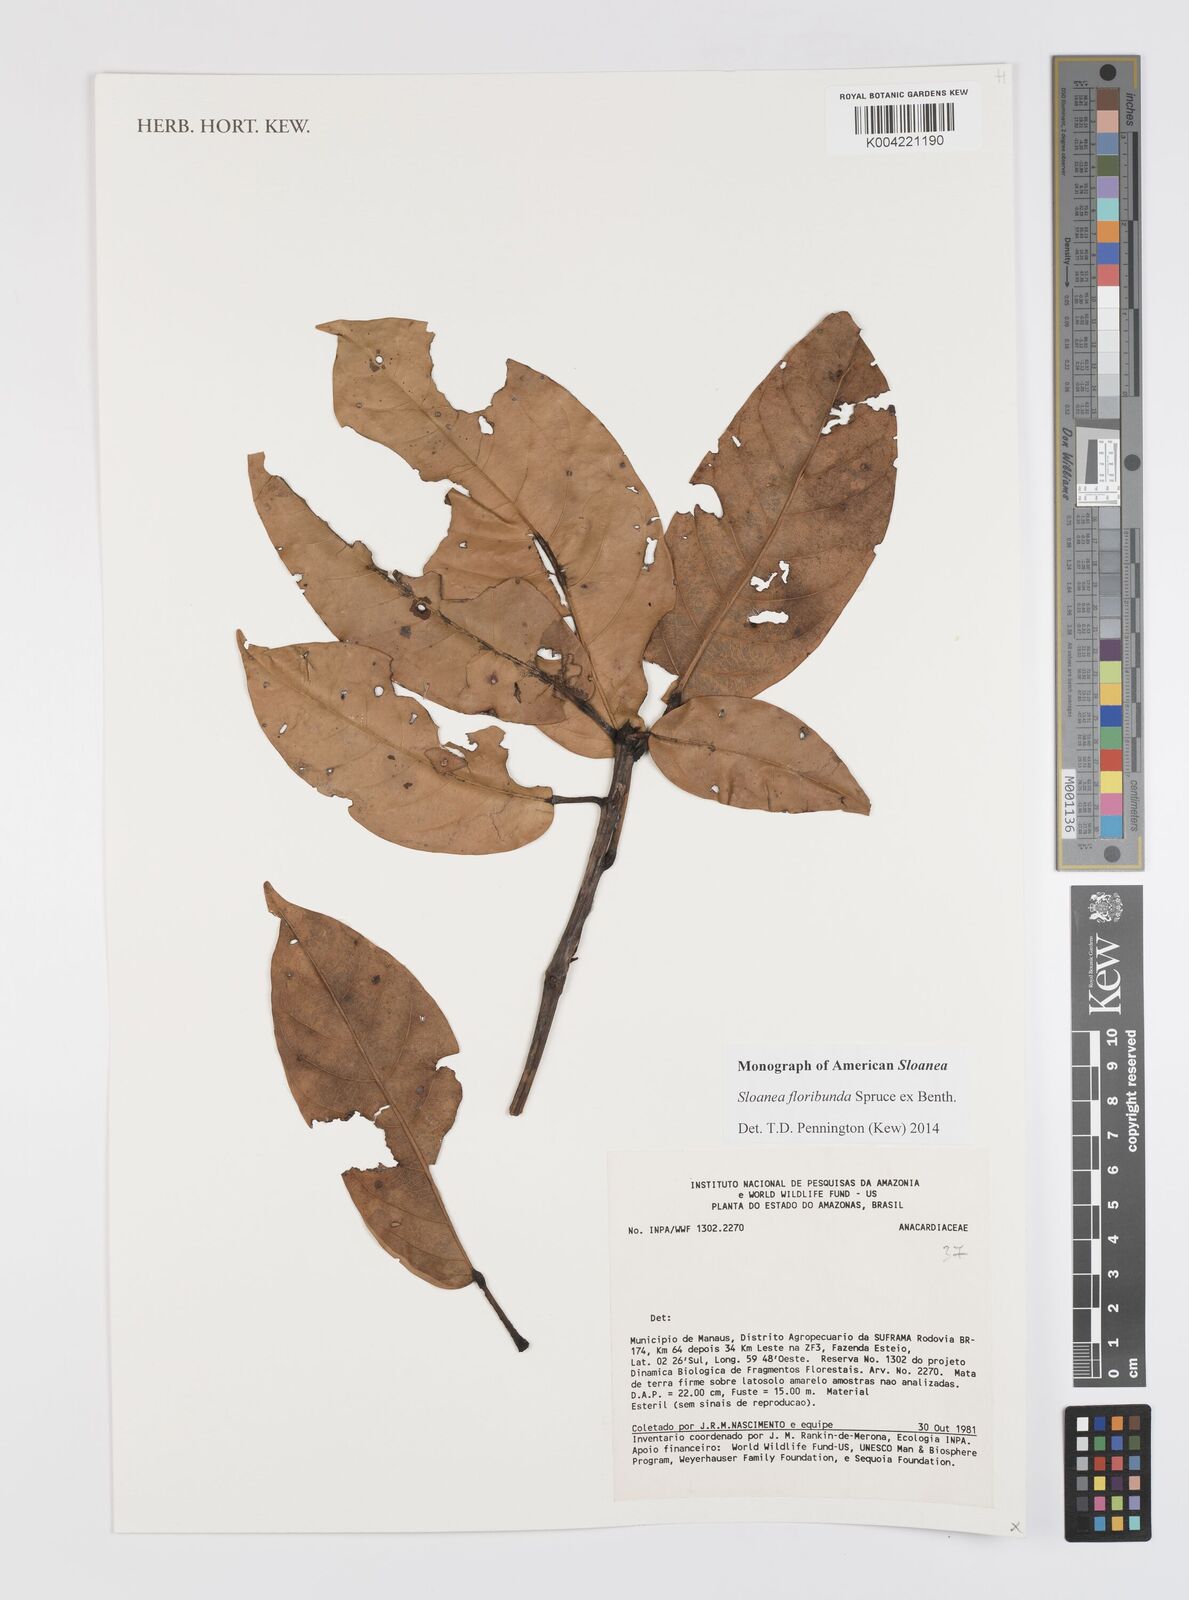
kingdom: Plantae
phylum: Tracheophyta
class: Magnoliopsida
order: Oxalidales
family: Elaeocarpaceae
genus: Sloanea
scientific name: Sloanea floribunda
